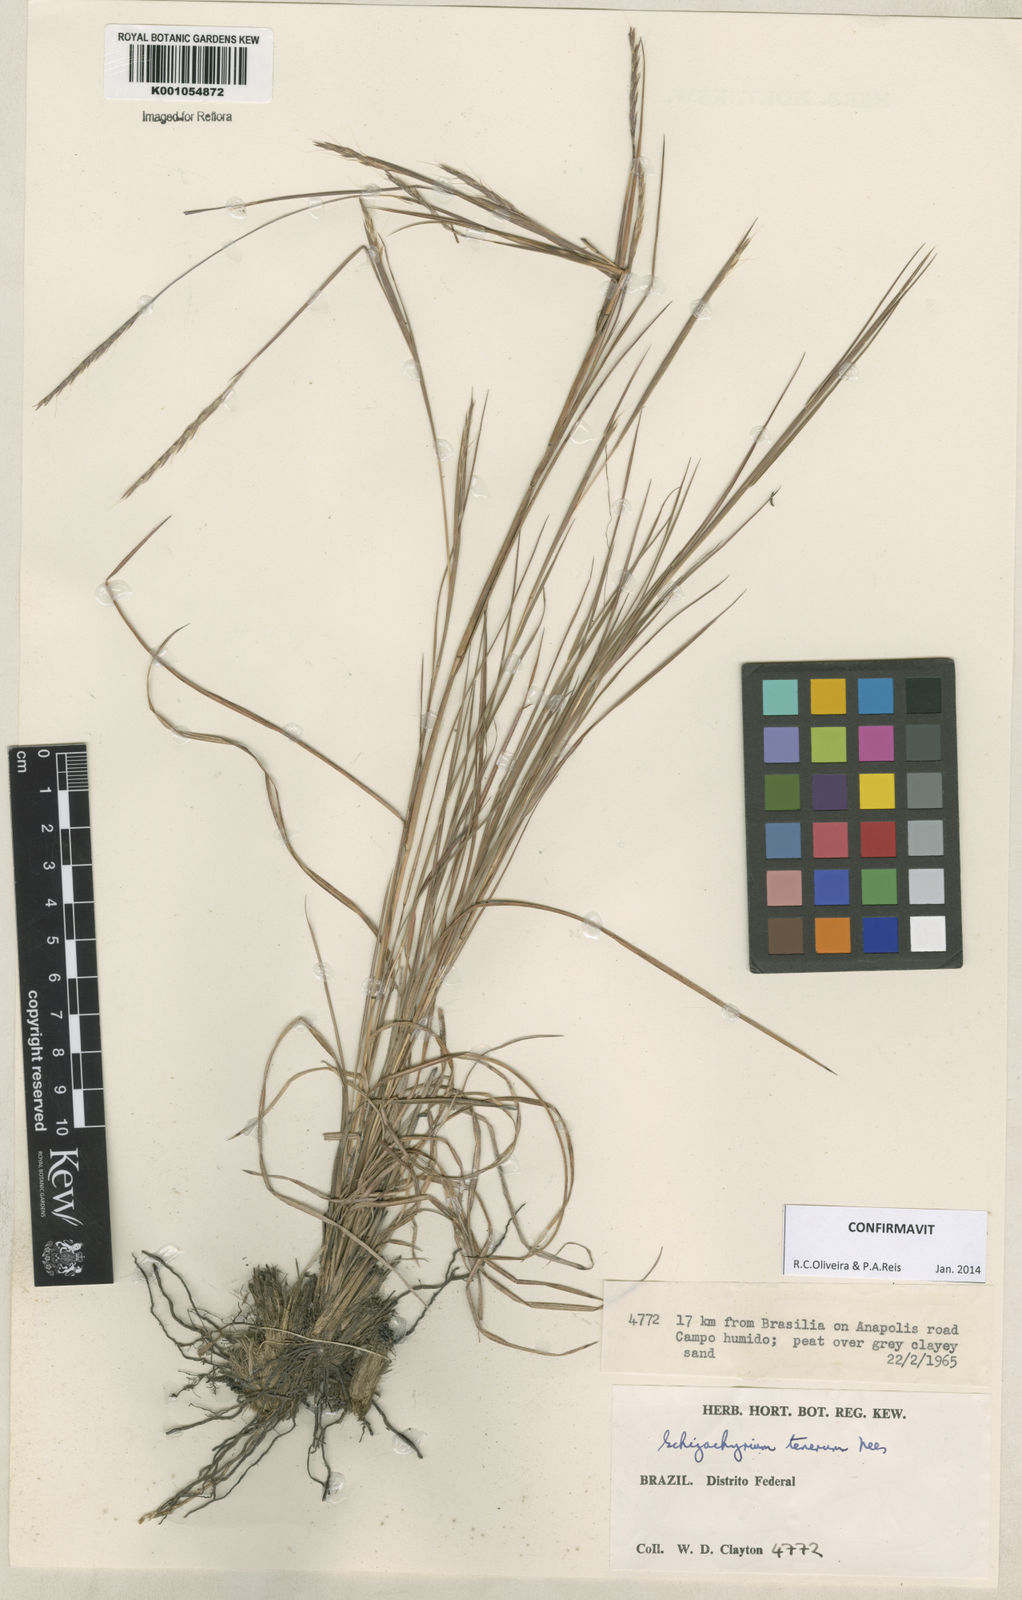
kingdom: Plantae
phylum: Tracheophyta
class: Liliopsida
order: Poales
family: Poaceae
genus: Andropogon
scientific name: Andropogon tener
